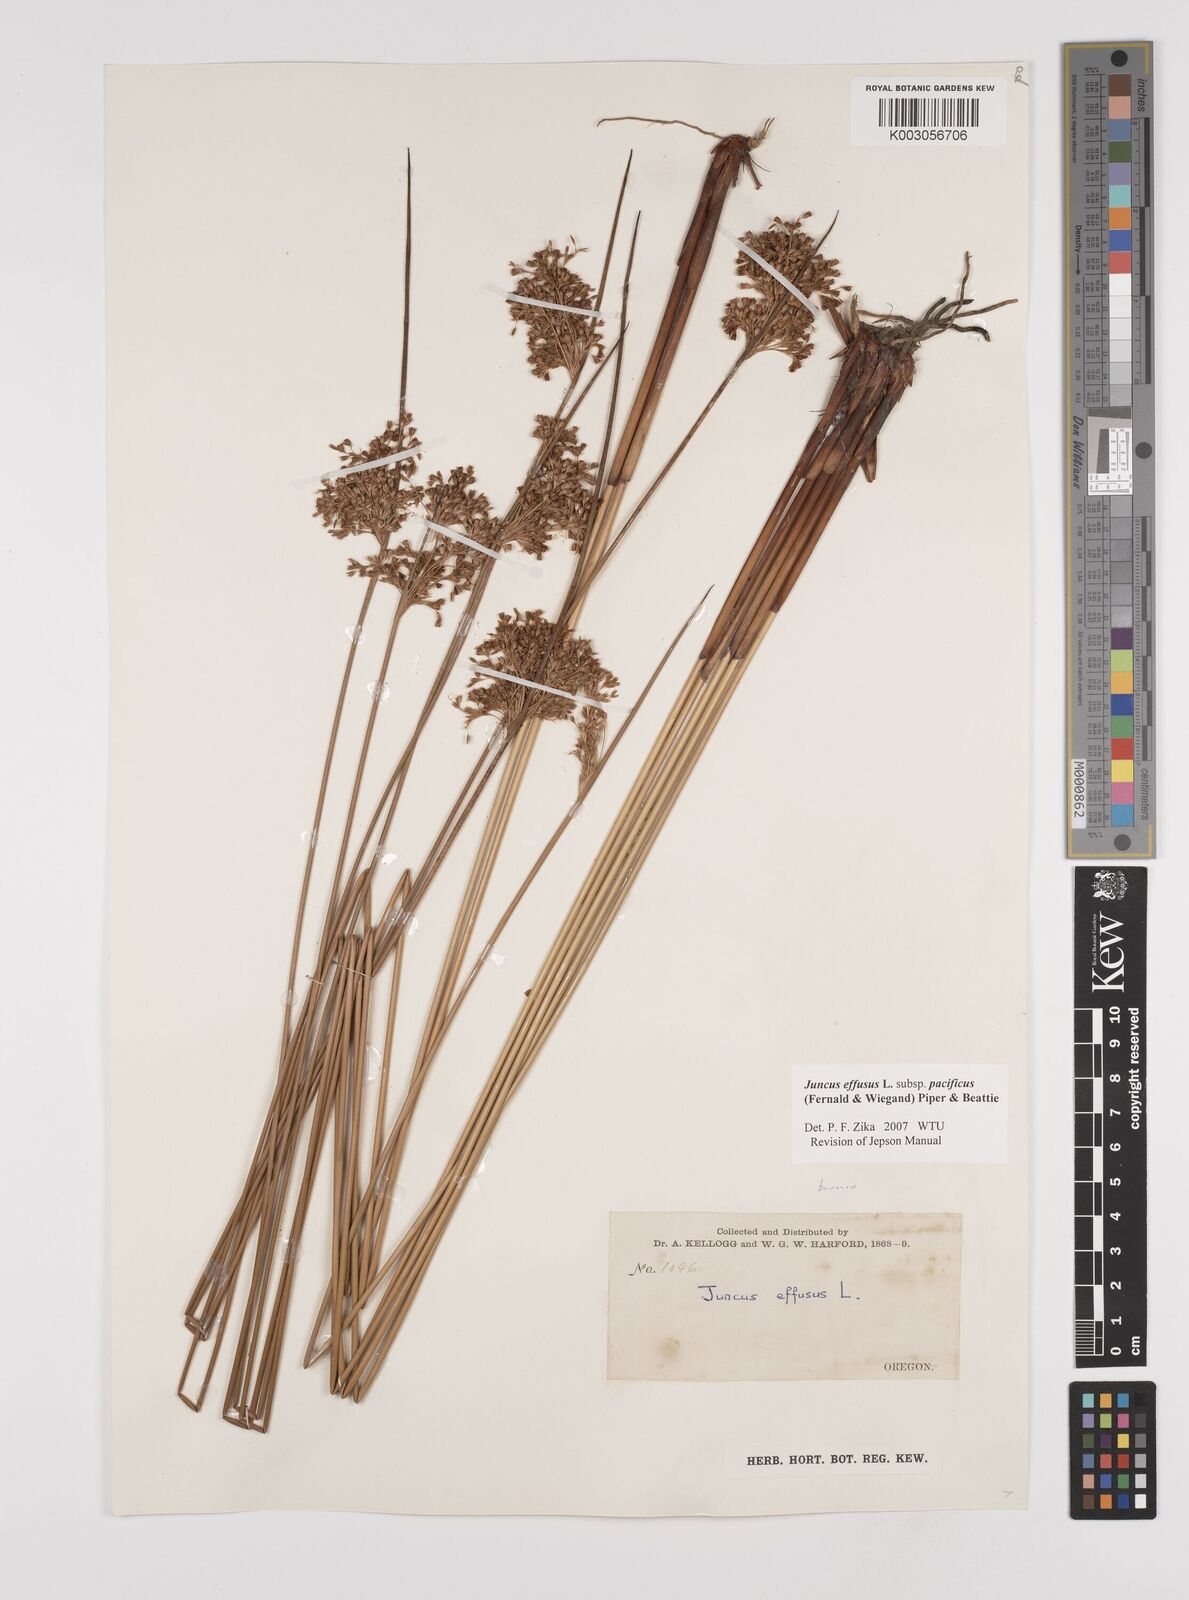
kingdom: Plantae
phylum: Tracheophyta
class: Liliopsida
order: Poales
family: Juncaceae
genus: Juncus
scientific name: Juncus effusus
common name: Soft rush
